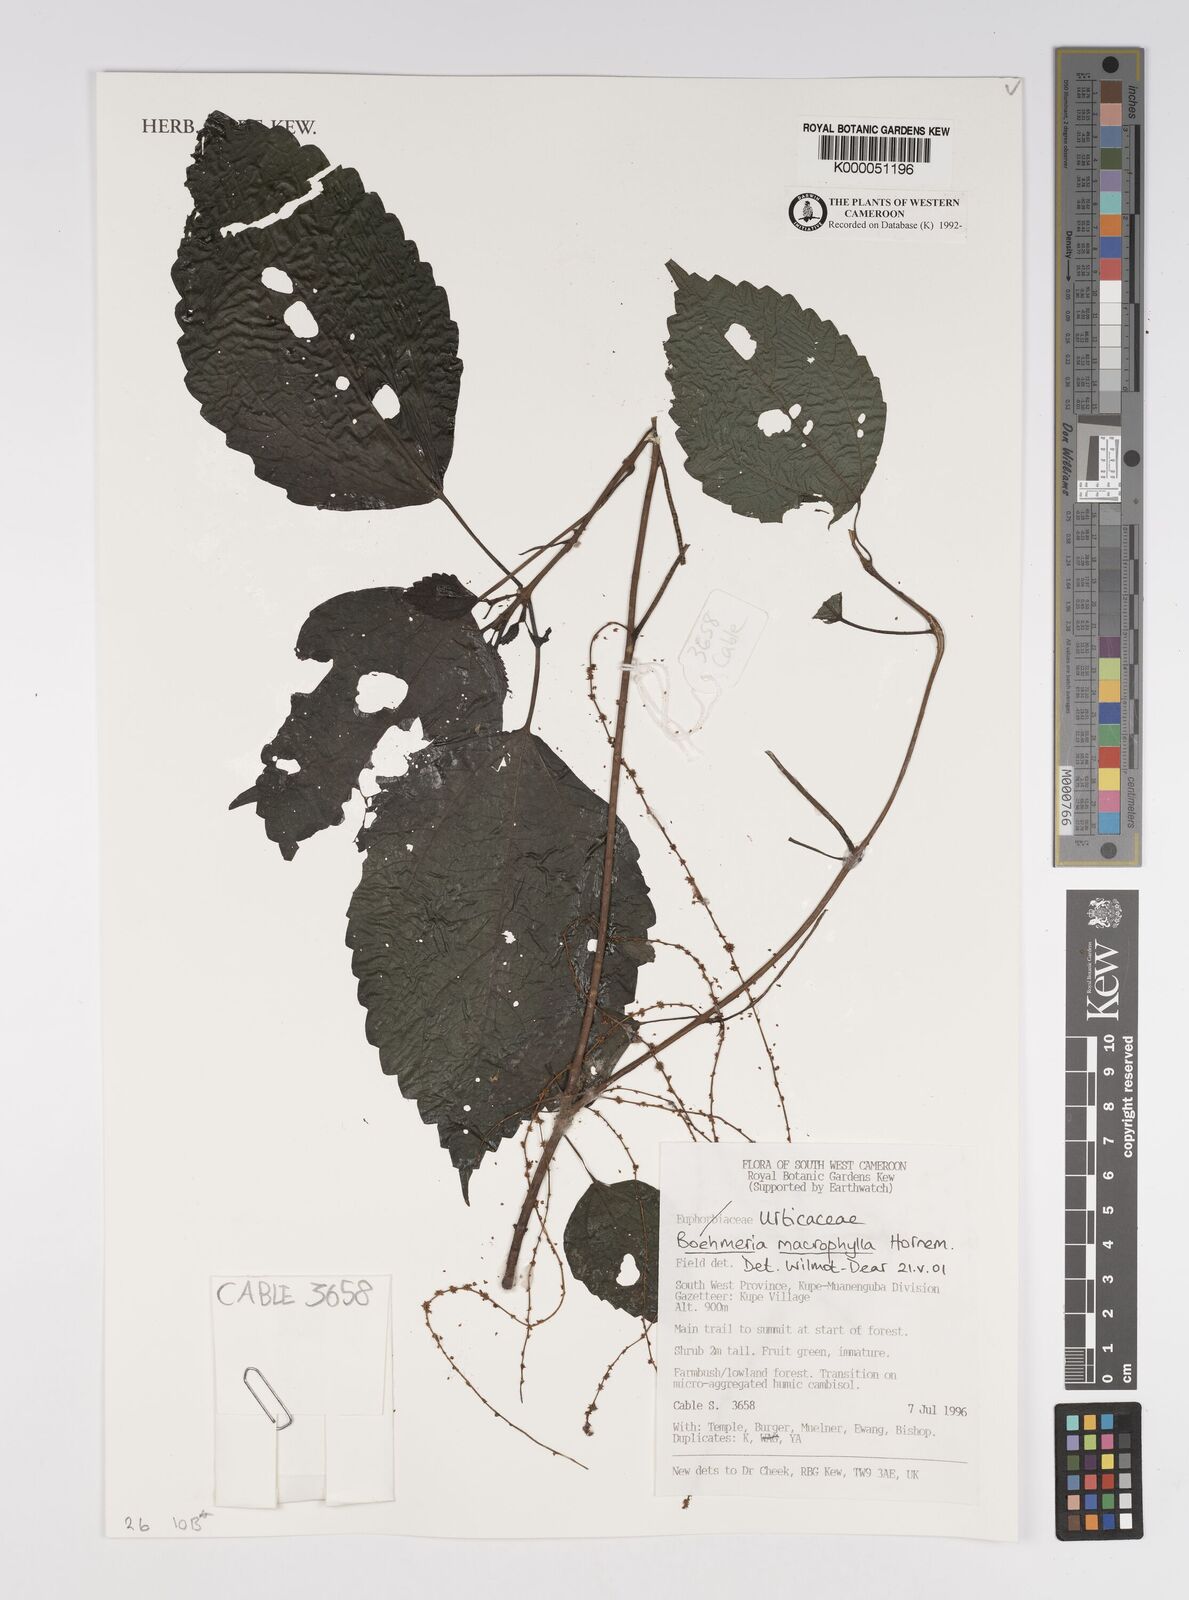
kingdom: Plantae
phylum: Tracheophyta
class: Magnoliopsida
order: Rosales
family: Urticaceae
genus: Boehmeria
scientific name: Boehmeria virgata
